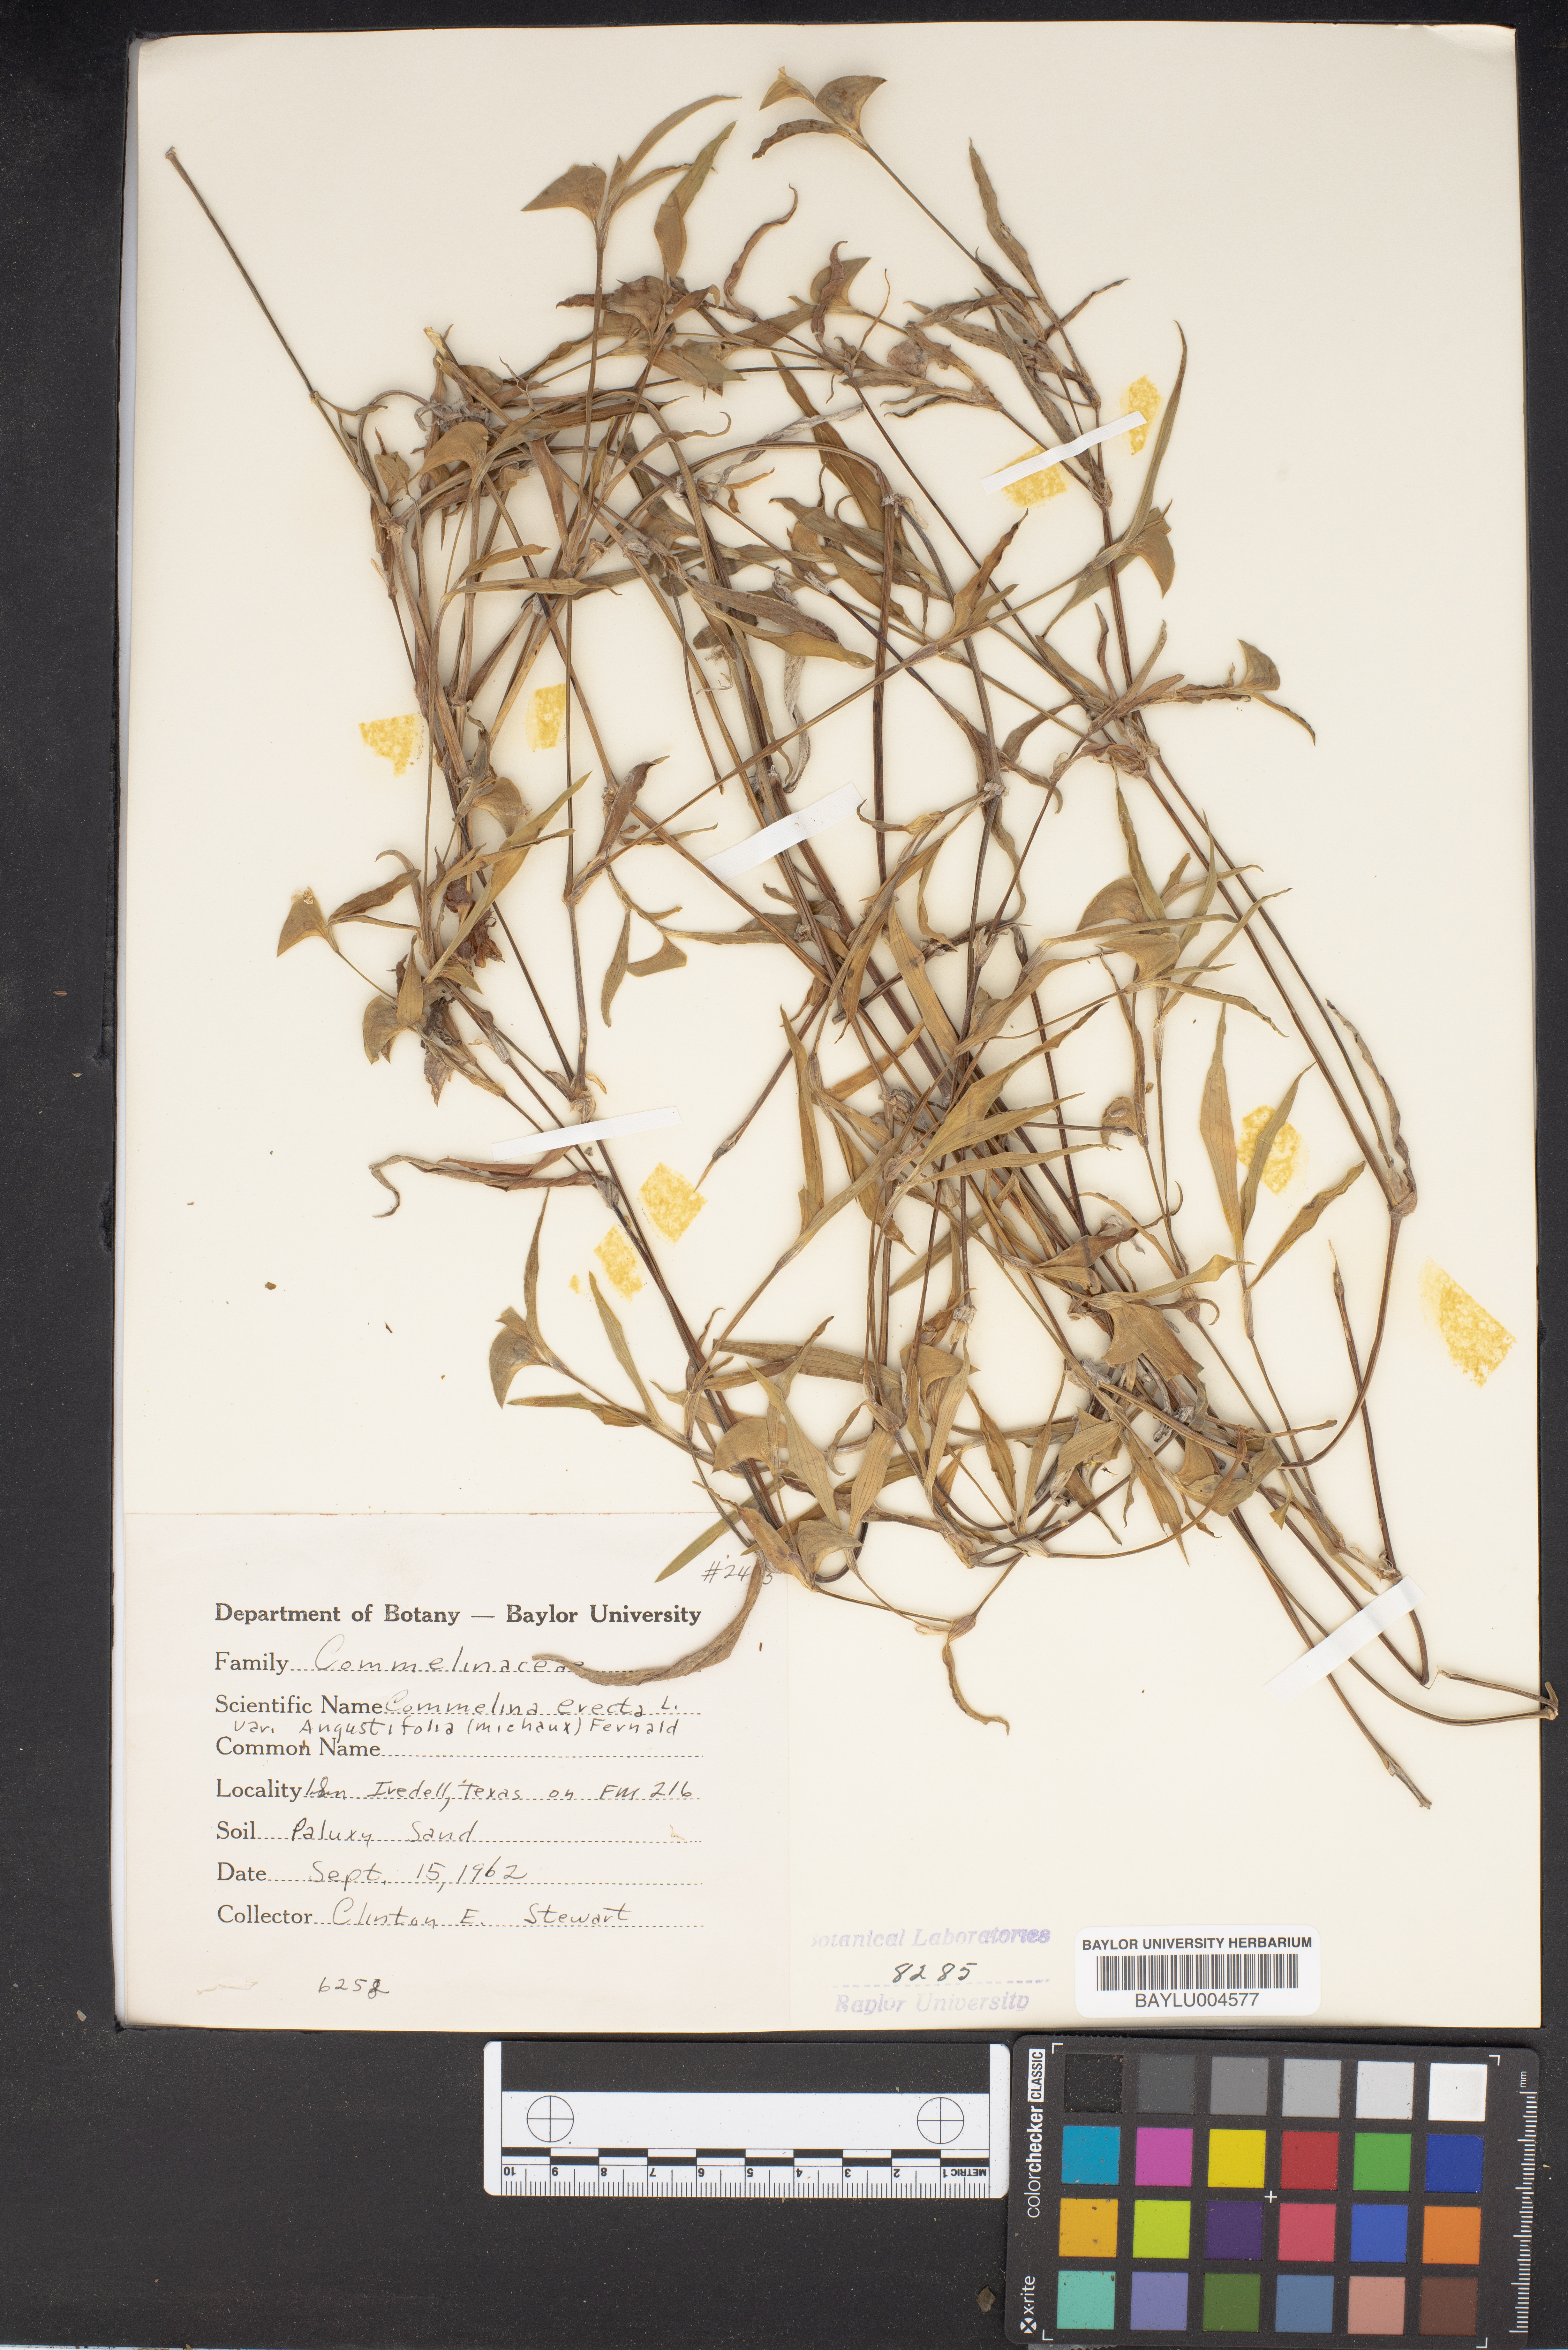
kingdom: Plantae
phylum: Tracheophyta
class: Liliopsida
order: Commelinales
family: Commelinaceae
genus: Commelina
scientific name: Commelina erecta
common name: Blousel blommetjie
